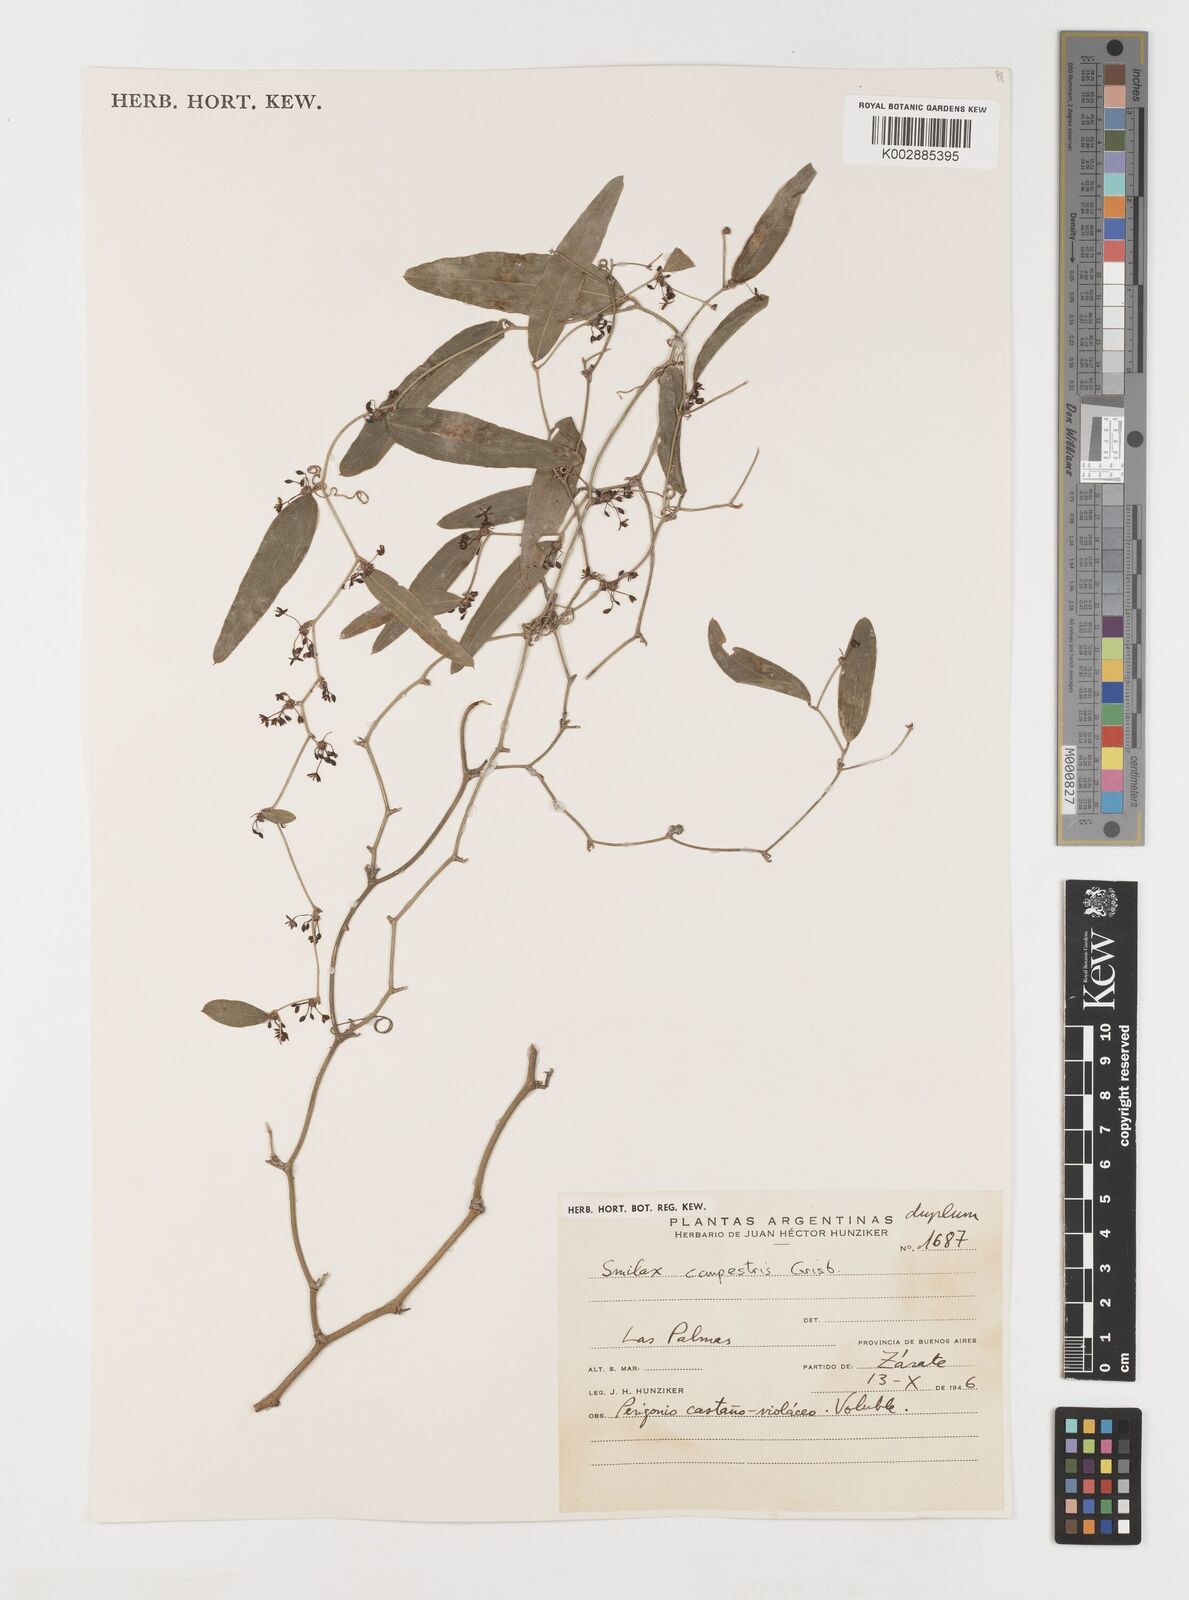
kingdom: Plantae
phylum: Tracheophyta
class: Liliopsida
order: Liliales
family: Smilacaceae
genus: Smilax
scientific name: Smilax campestris
